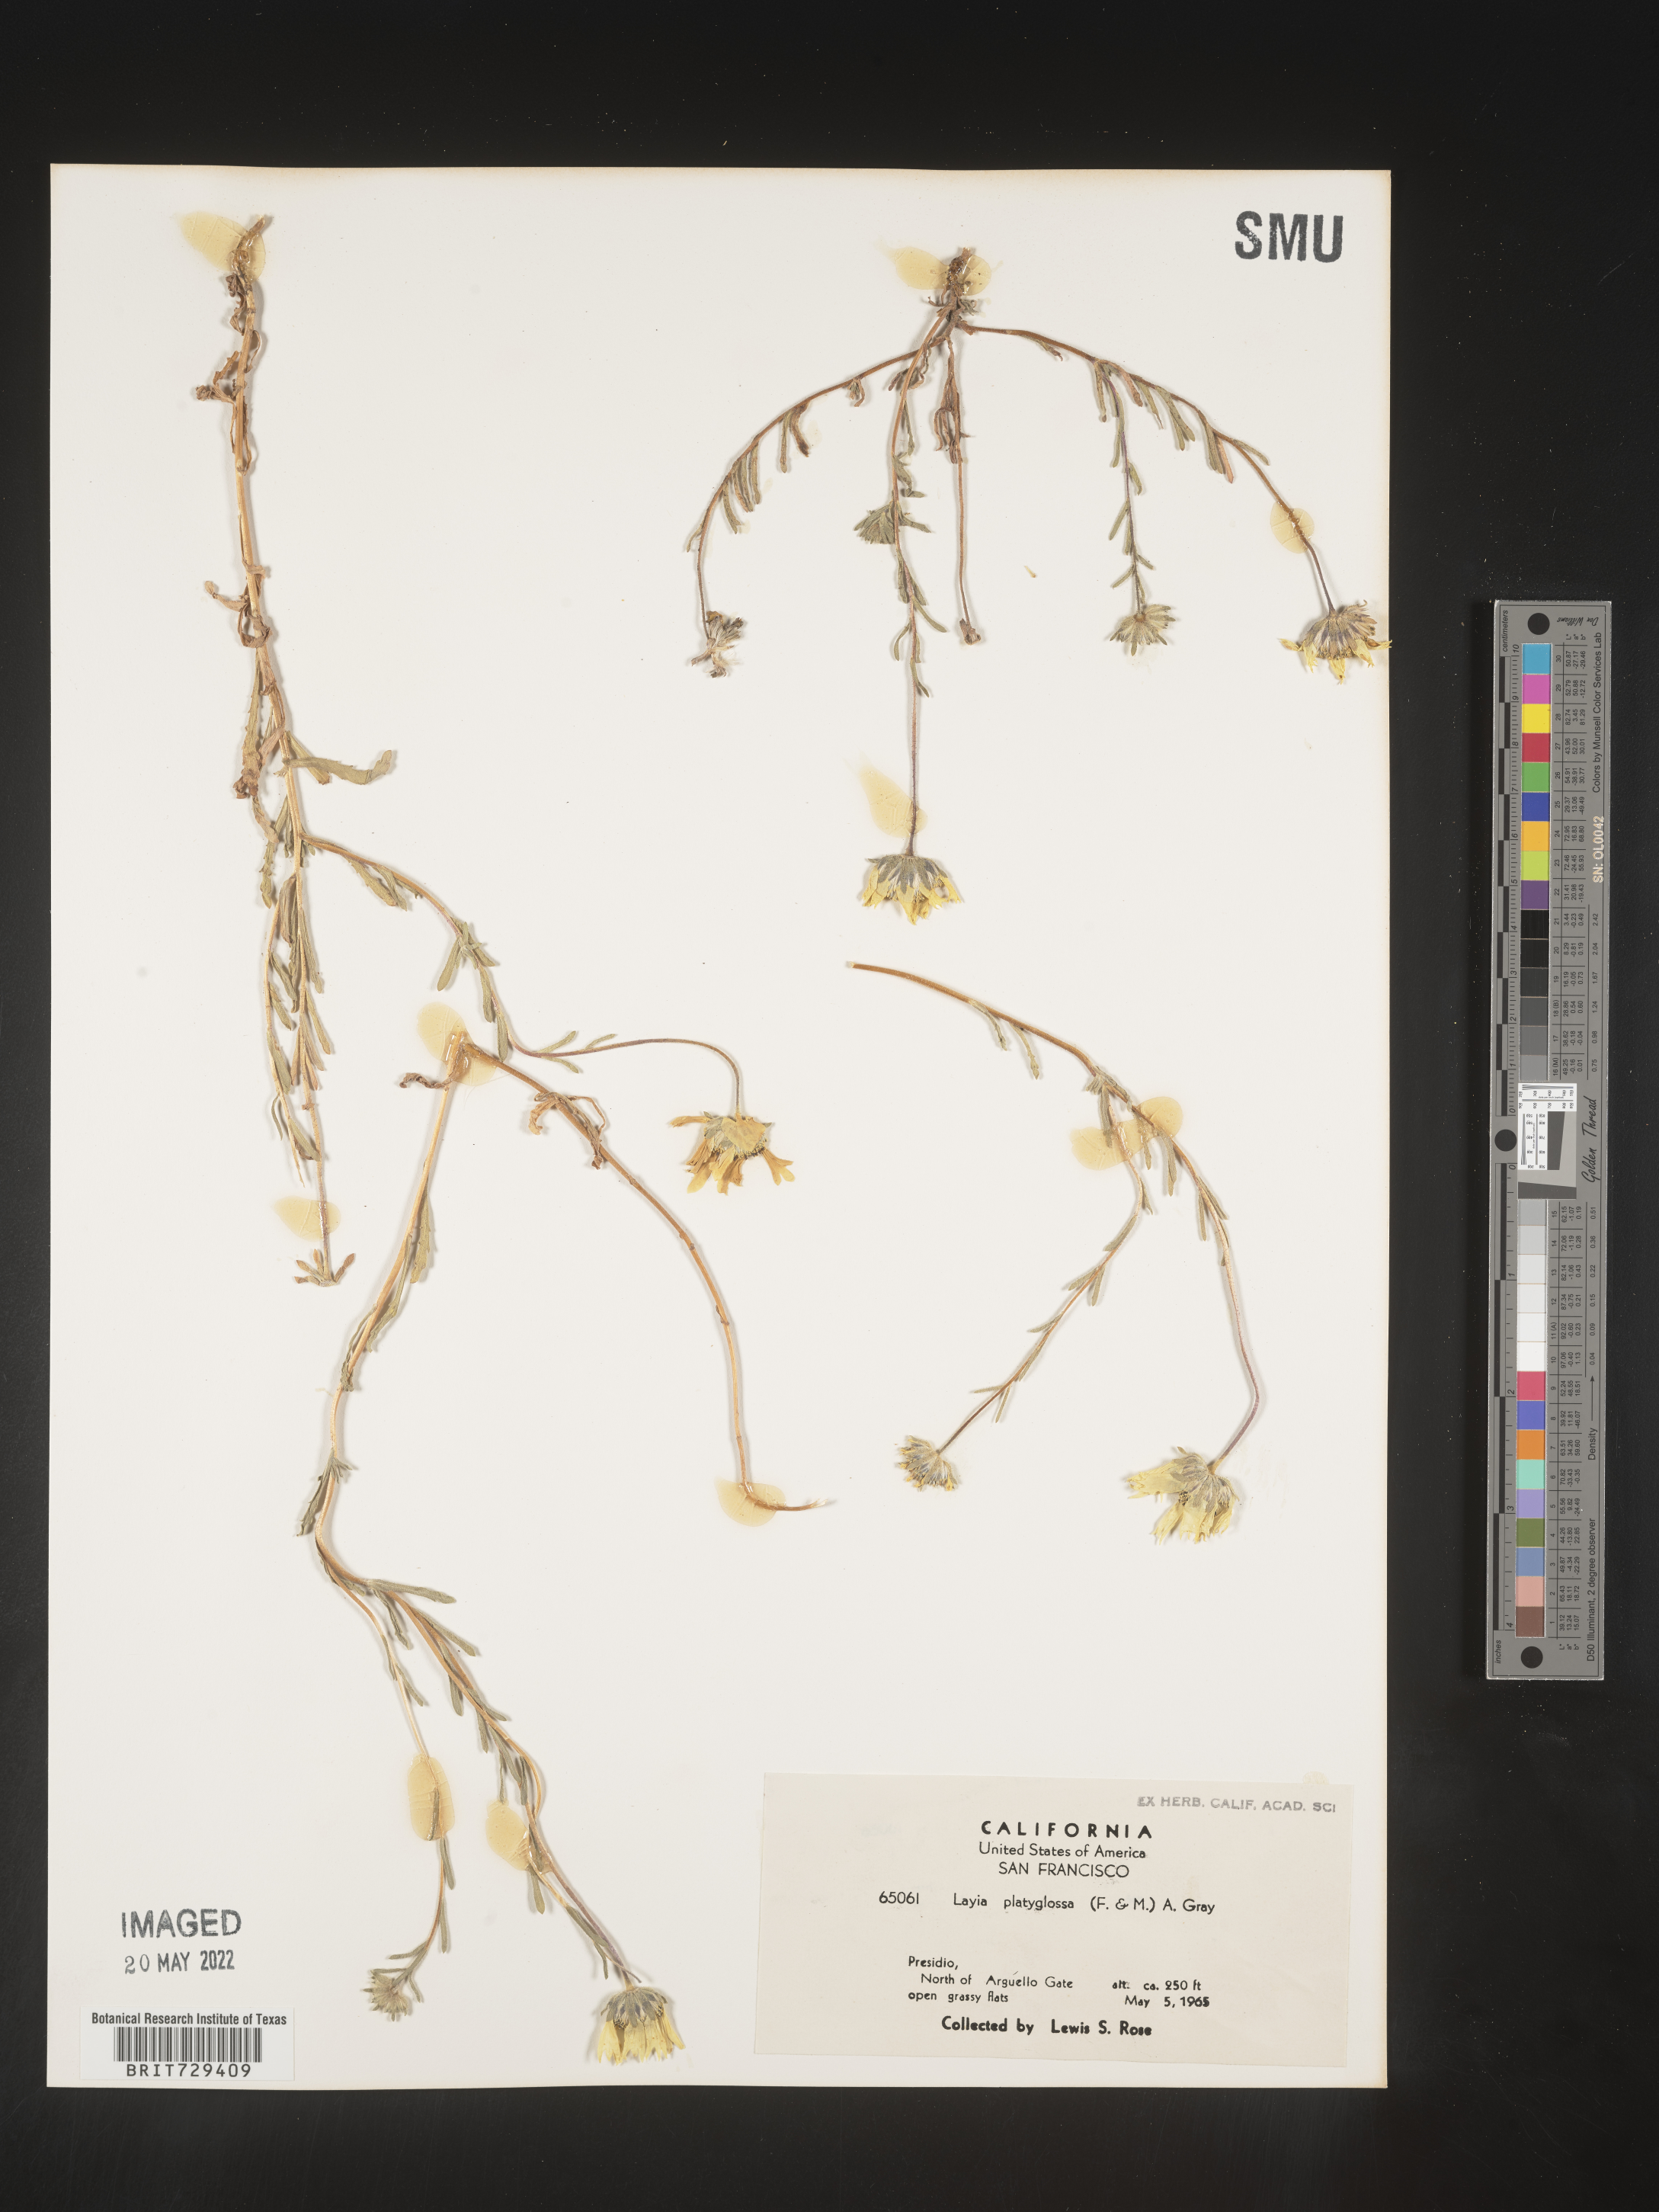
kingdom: Plantae
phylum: Tracheophyta
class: Magnoliopsida
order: Asterales
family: Asteraceae
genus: Layia
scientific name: Layia
